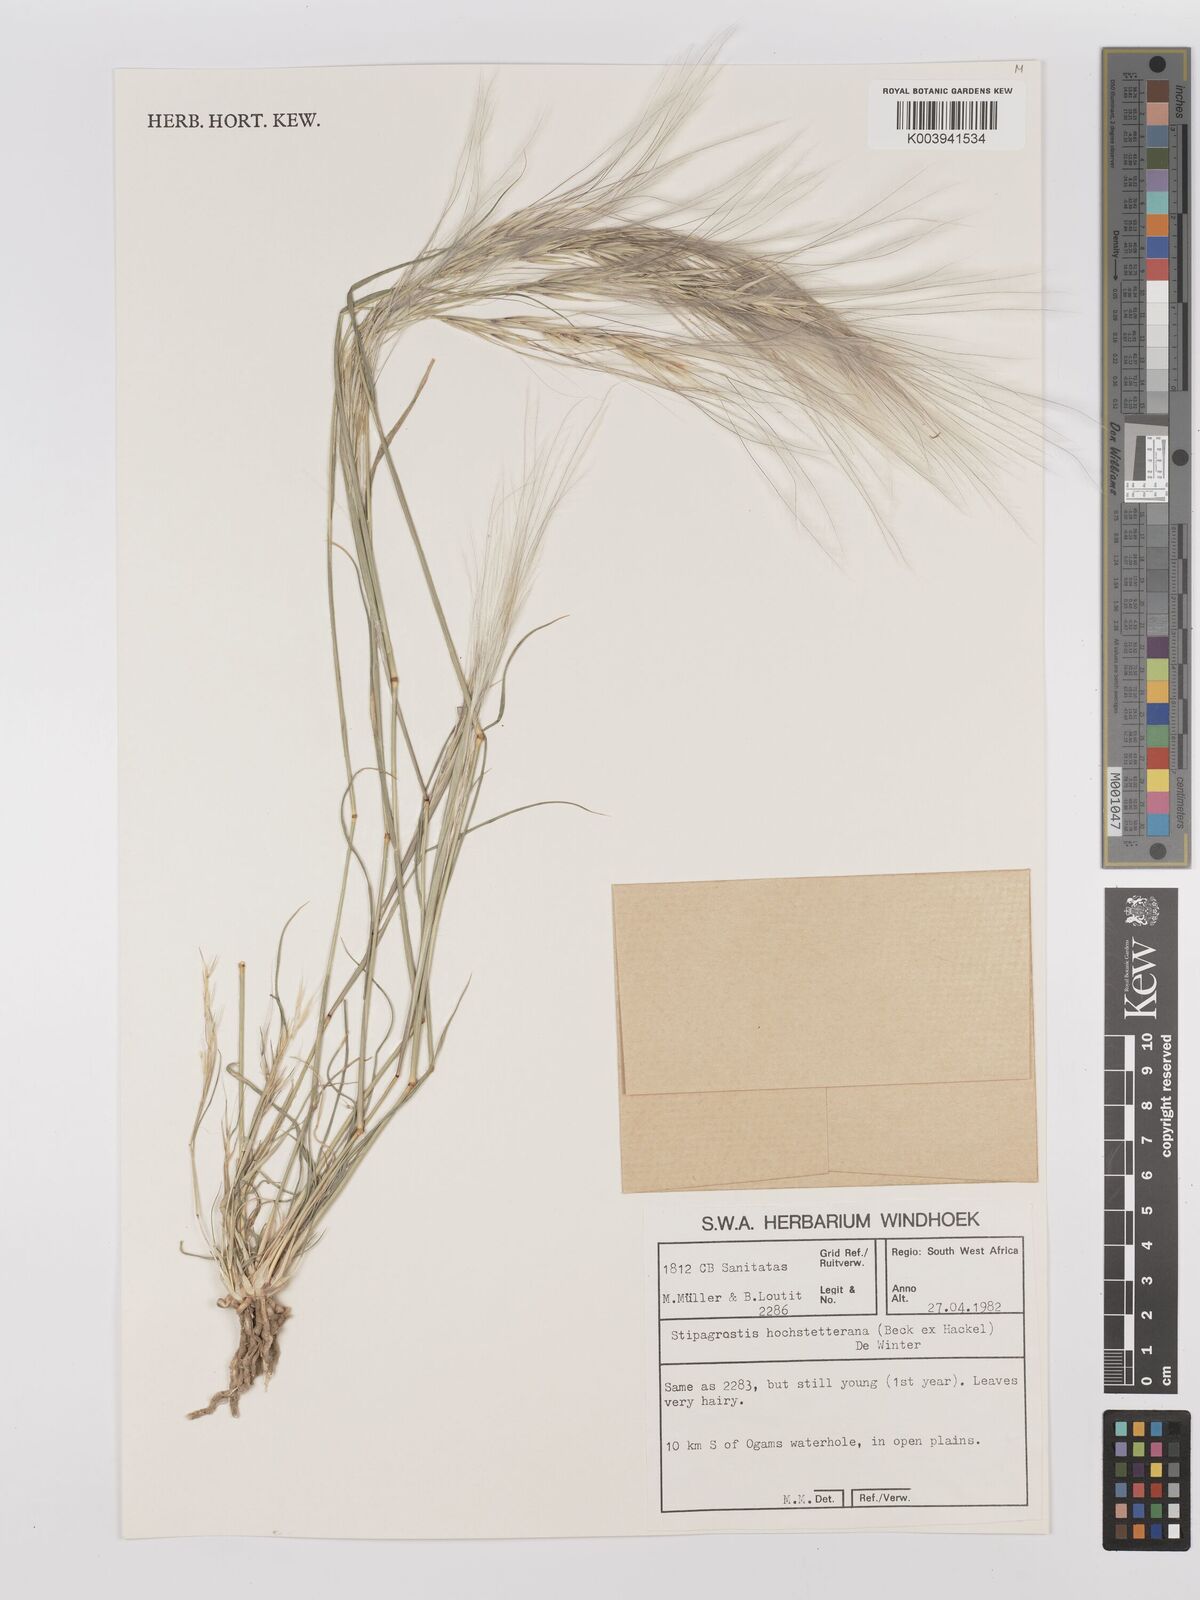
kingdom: Plantae
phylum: Tracheophyta
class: Liliopsida
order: Poales
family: Poaceae
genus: Stipagrostis
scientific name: Stipagrostis hochstetteriana
